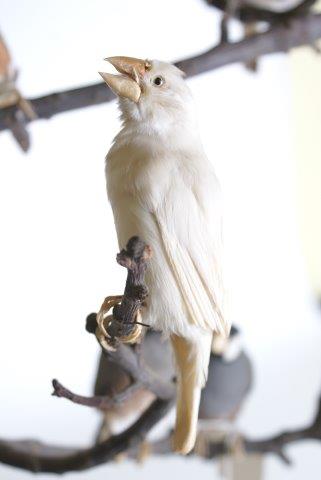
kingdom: Animalia
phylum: Chordata
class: Aves
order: Passeriformes
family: Estrildidae
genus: Lonchura
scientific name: Lonchura oryzivora
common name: Java sparrow
